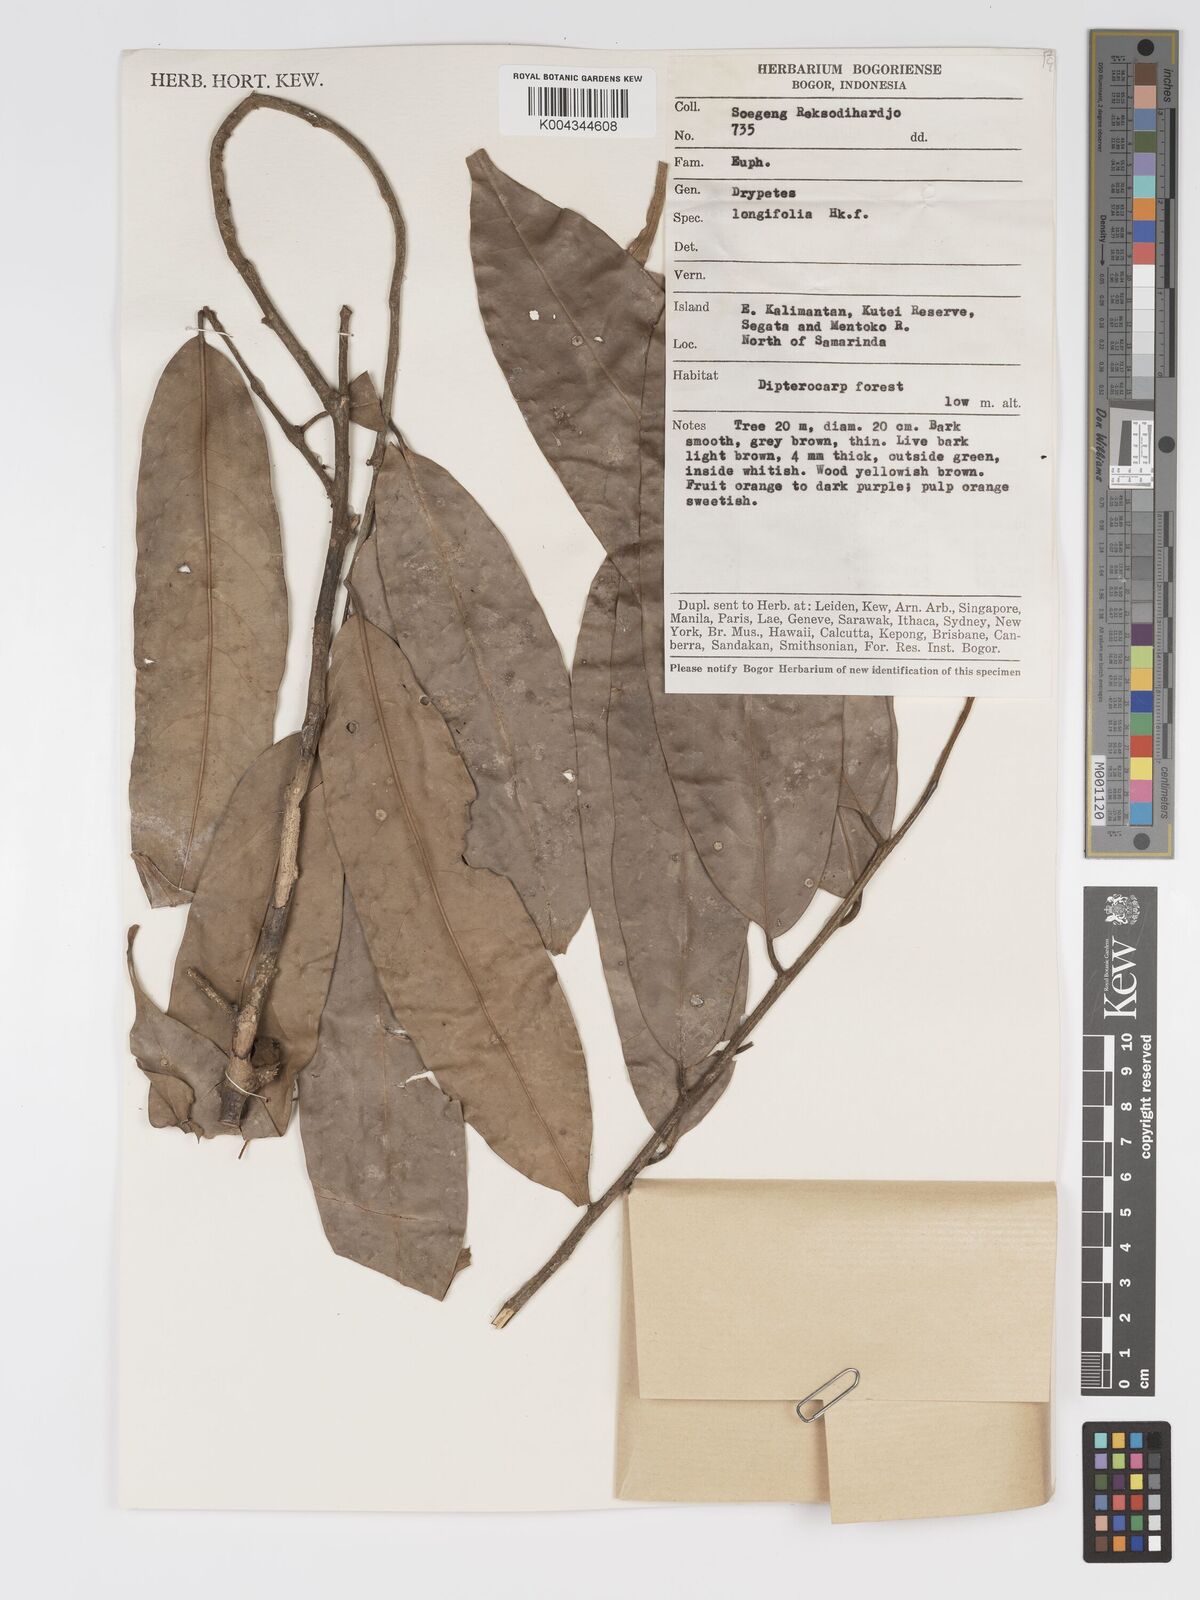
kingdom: Plantae
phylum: Tracheophyta
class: Magnoliopsida
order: Malpighiales
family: Putranjivaceae
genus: Drypetes
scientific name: Drypetes longifolia
